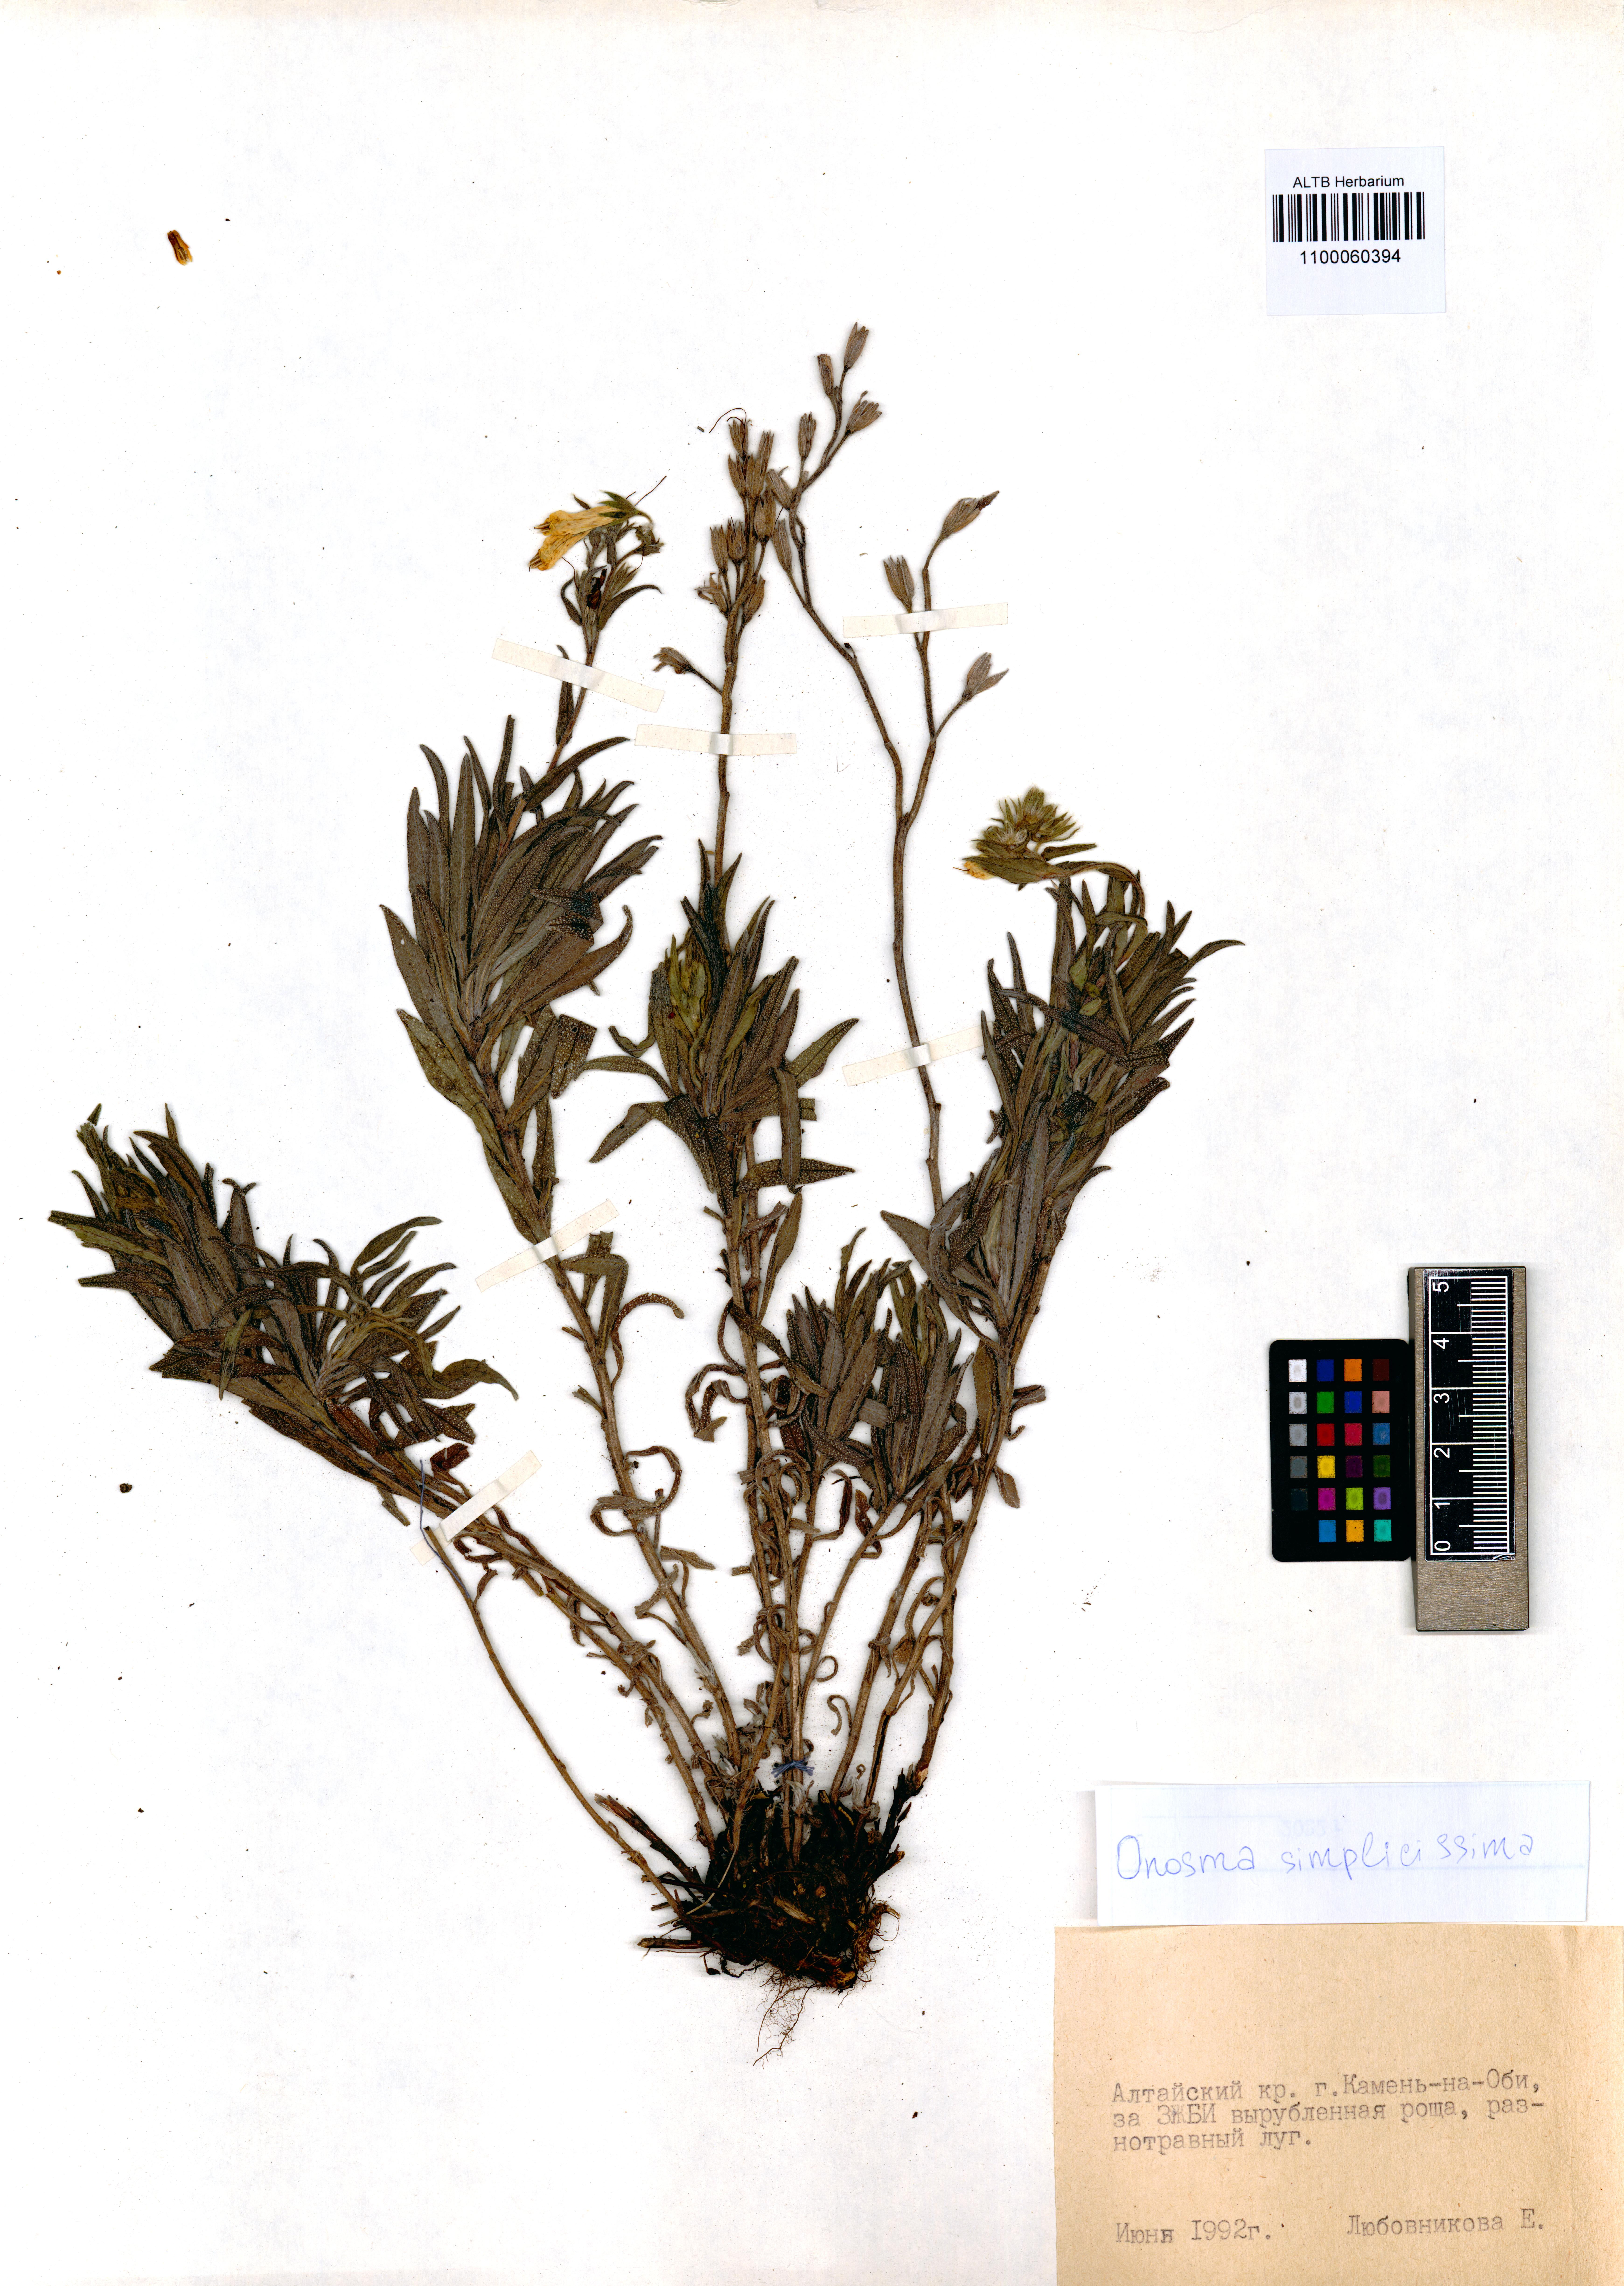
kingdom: Plantae
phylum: Tracheophyta
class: Magnoliopsida
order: Boraginales
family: Boraginaceae
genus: Onosma
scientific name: Onosma simplicissima
